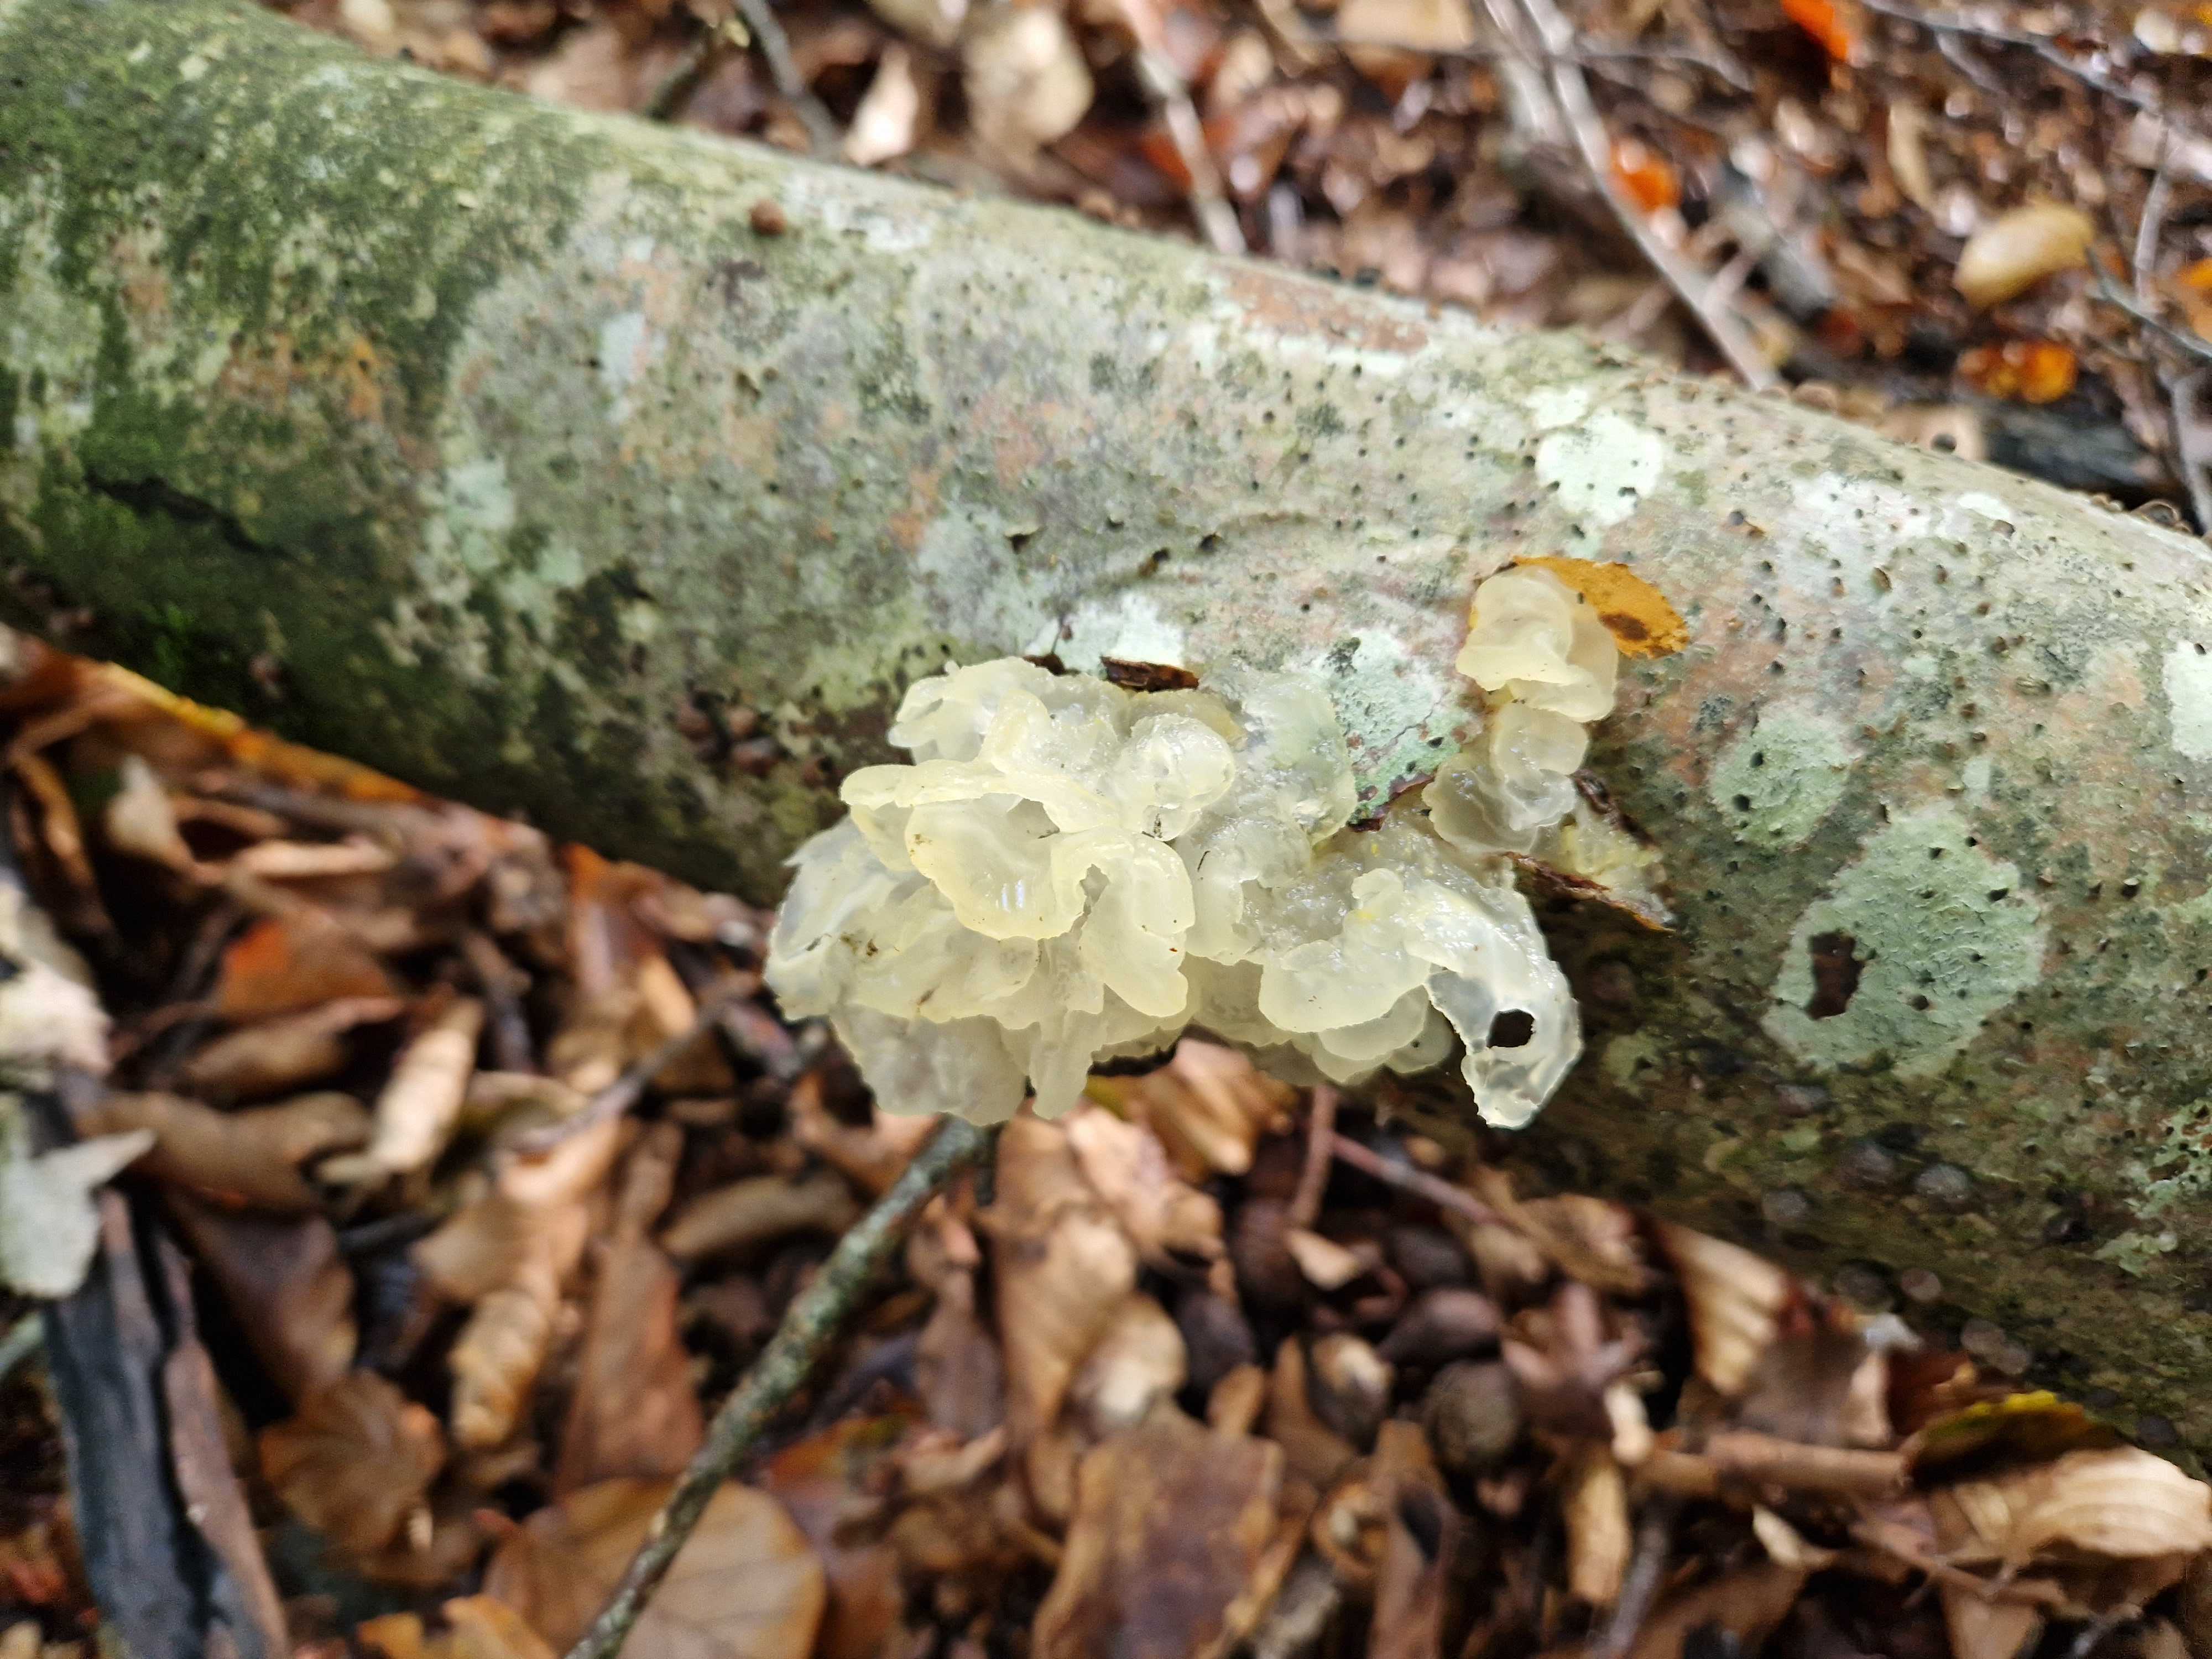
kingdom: Fungi
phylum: Basidiomycota
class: Tremellomycetes
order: Tremellales
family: Tremellaceae
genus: Tremella
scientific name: Tremella mesenterica
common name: gul bævresvamp
